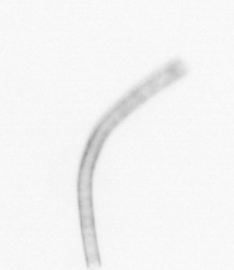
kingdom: Chromista
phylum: Ochrophyta
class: Bacillariophyceae
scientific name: Bacillariophyceae
